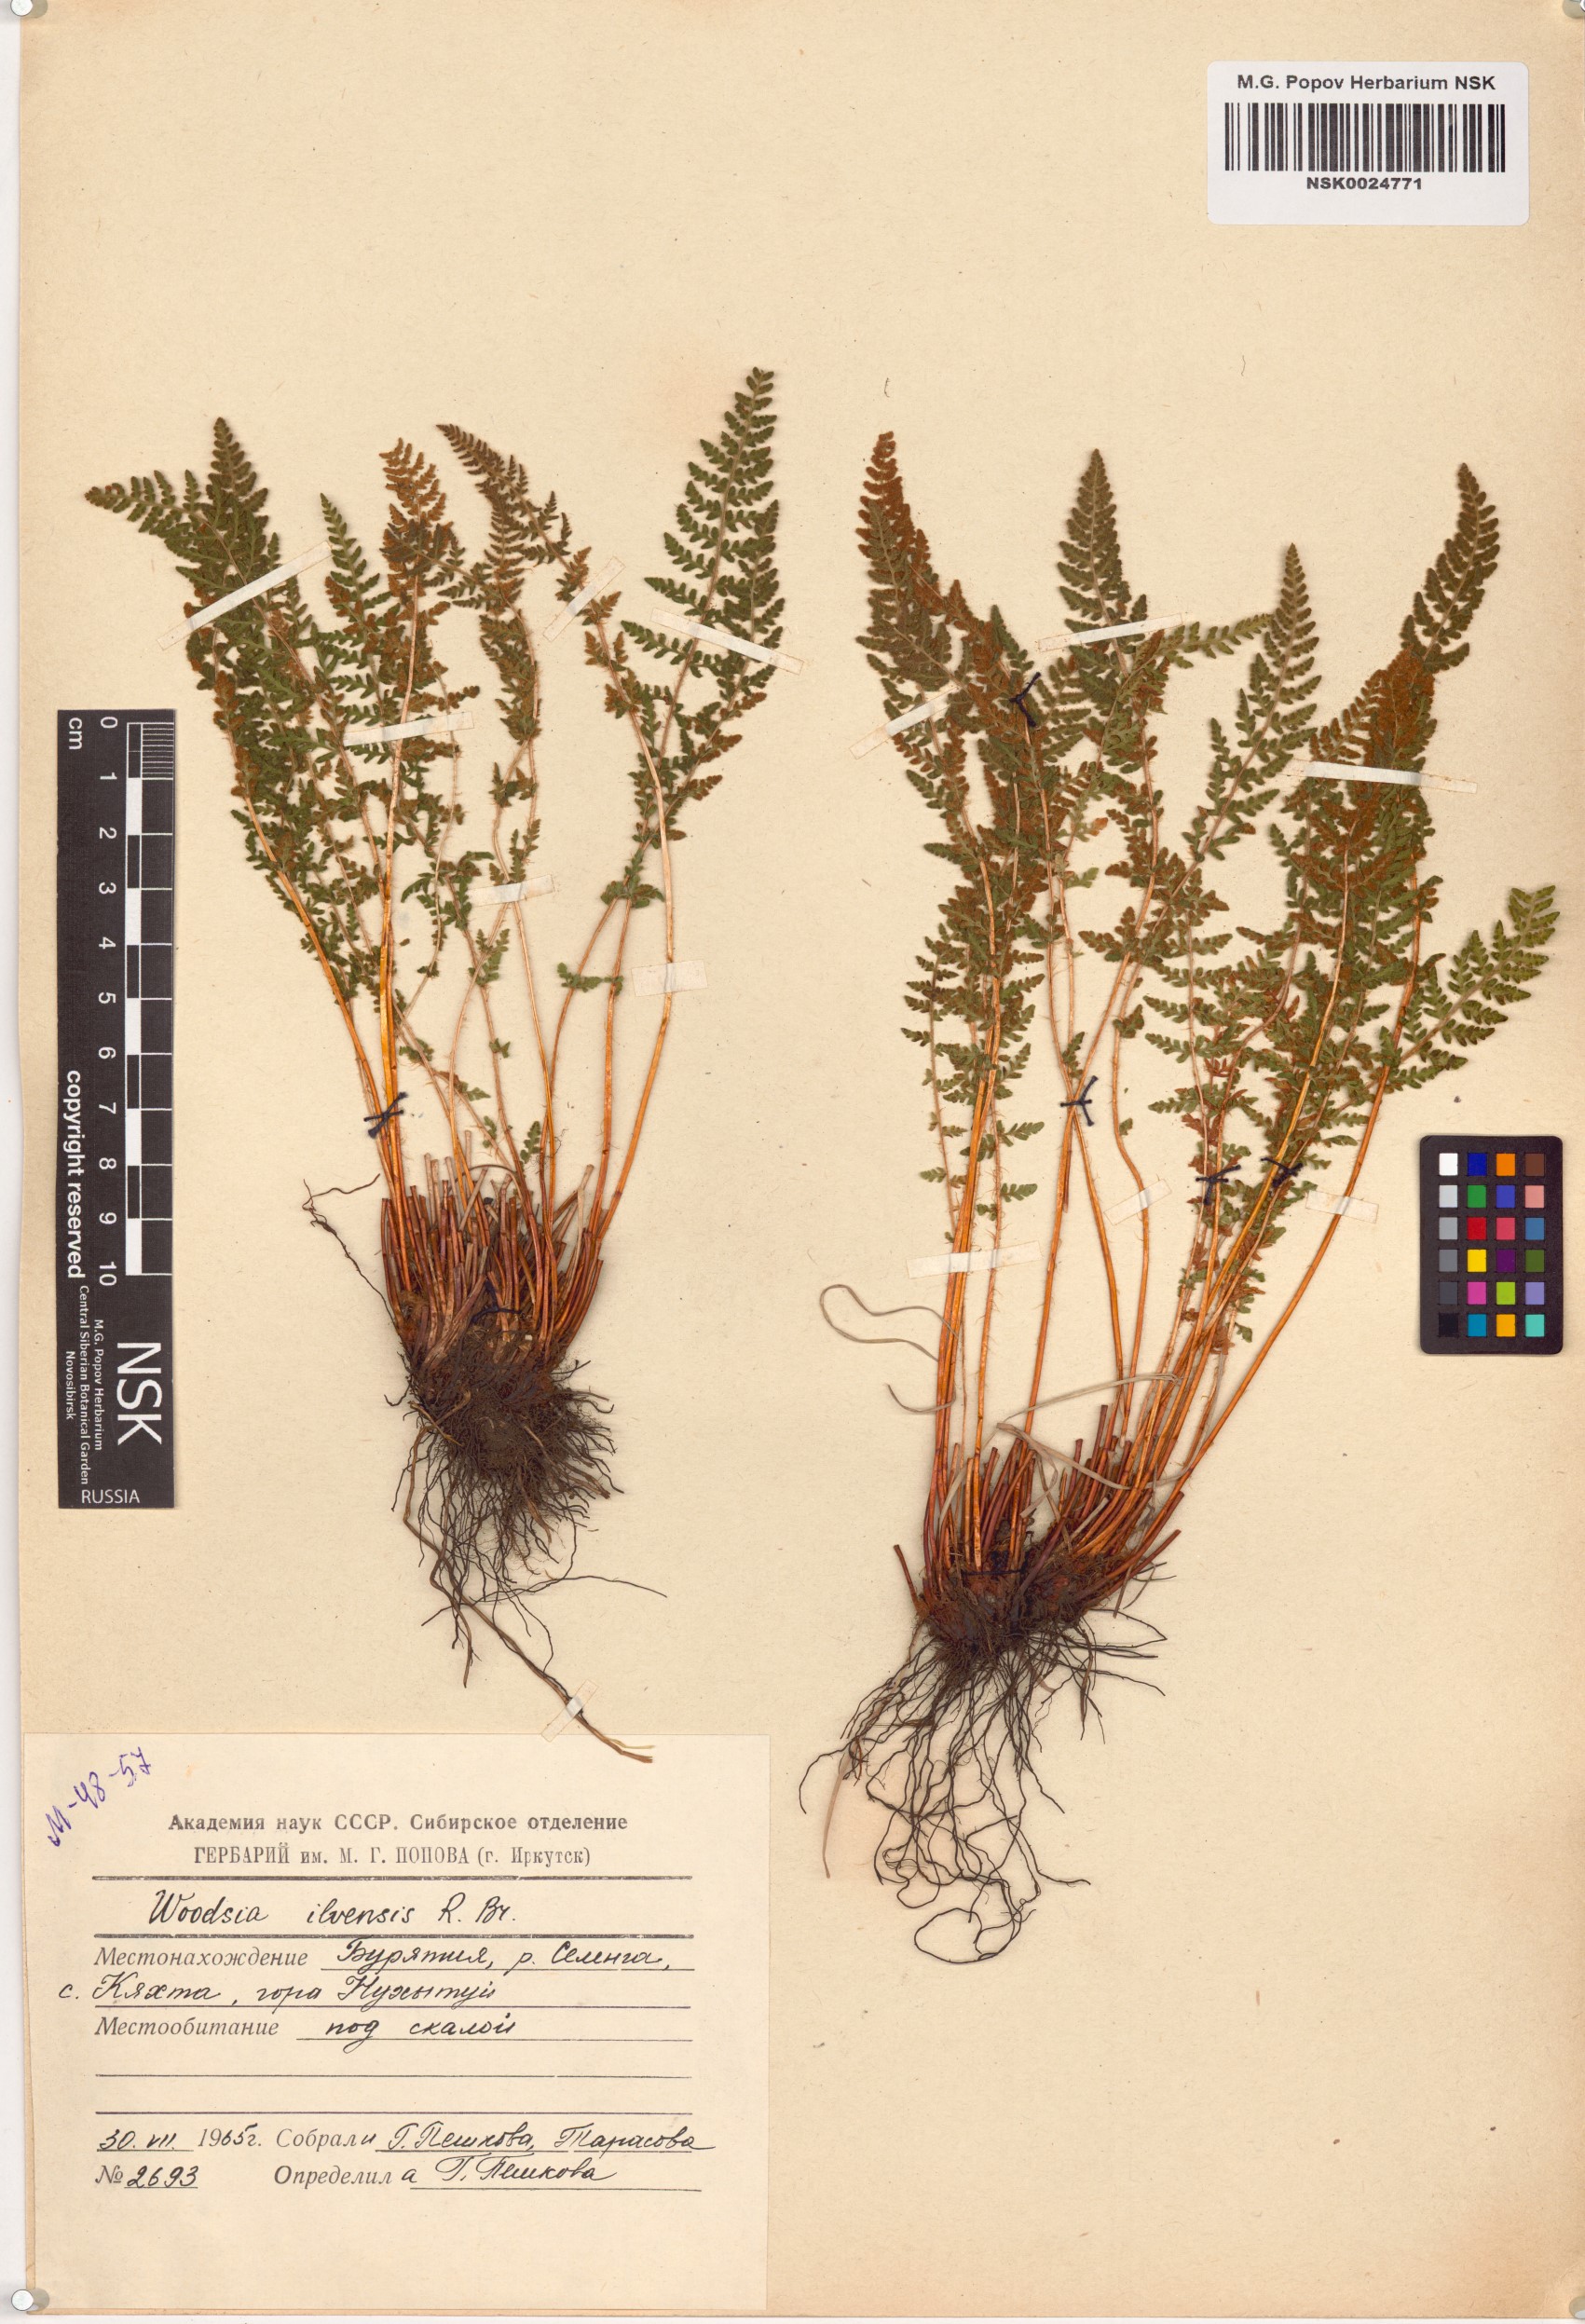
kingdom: Plantae
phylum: Tracheophyta
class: Polypodiopsida
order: Polypodiales
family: Woodsiaceae
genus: Woodsia
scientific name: Woodsia ilvensis
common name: Fragrant woodsia
